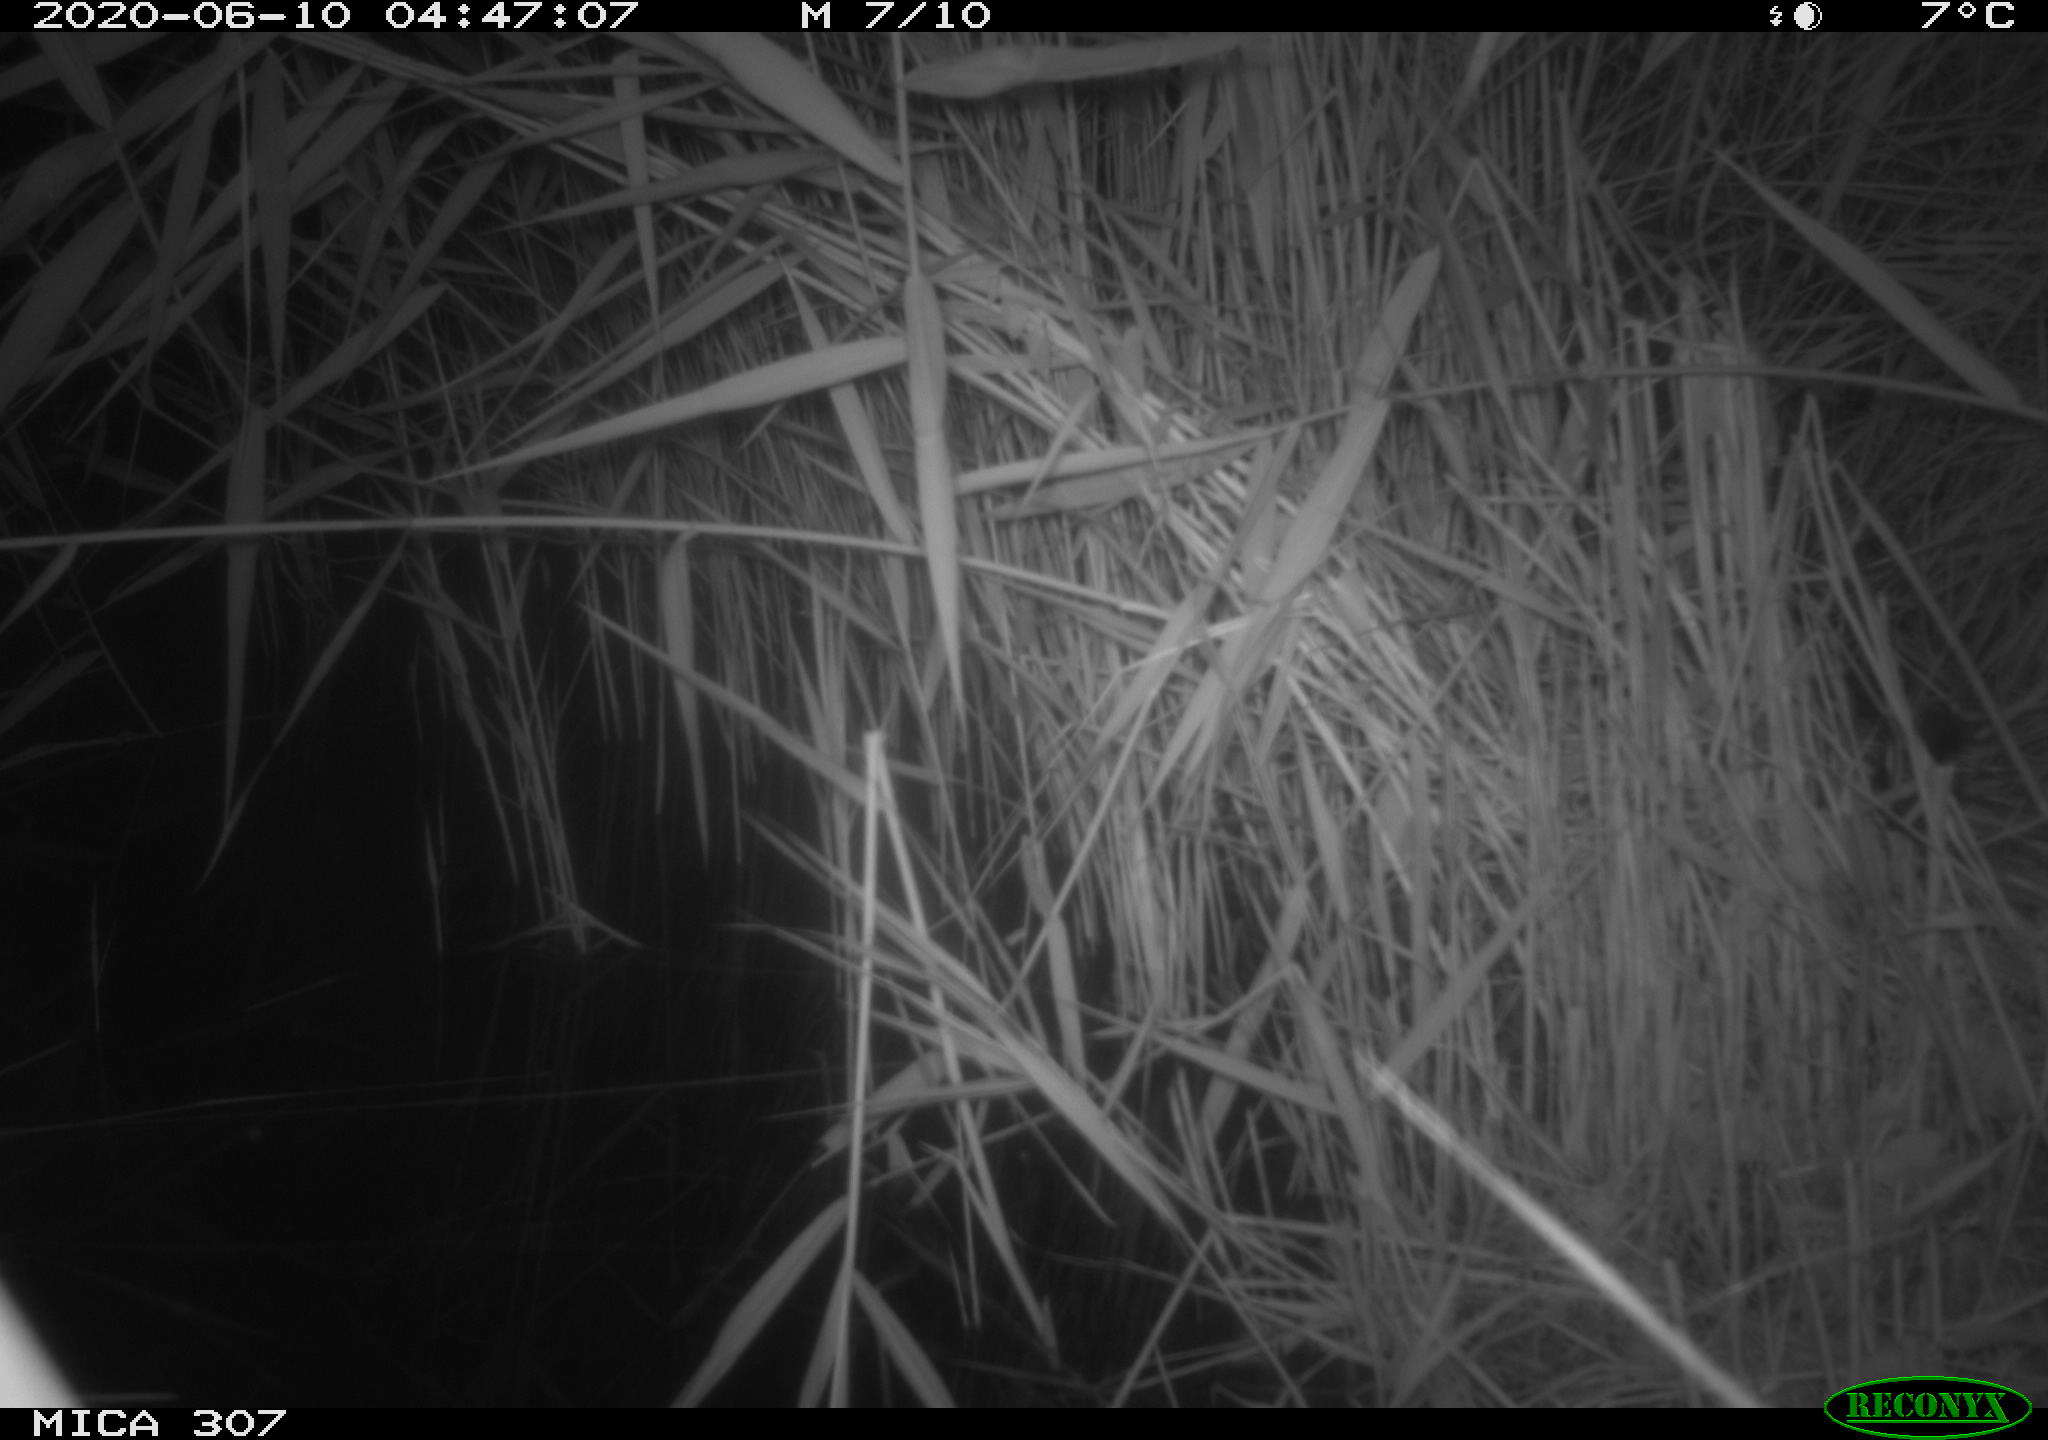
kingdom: Animalia
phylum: Chordata
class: Mammalia
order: Rodentia
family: Muridae
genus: Rattus
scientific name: Rattus norvegicus
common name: Brown rat
